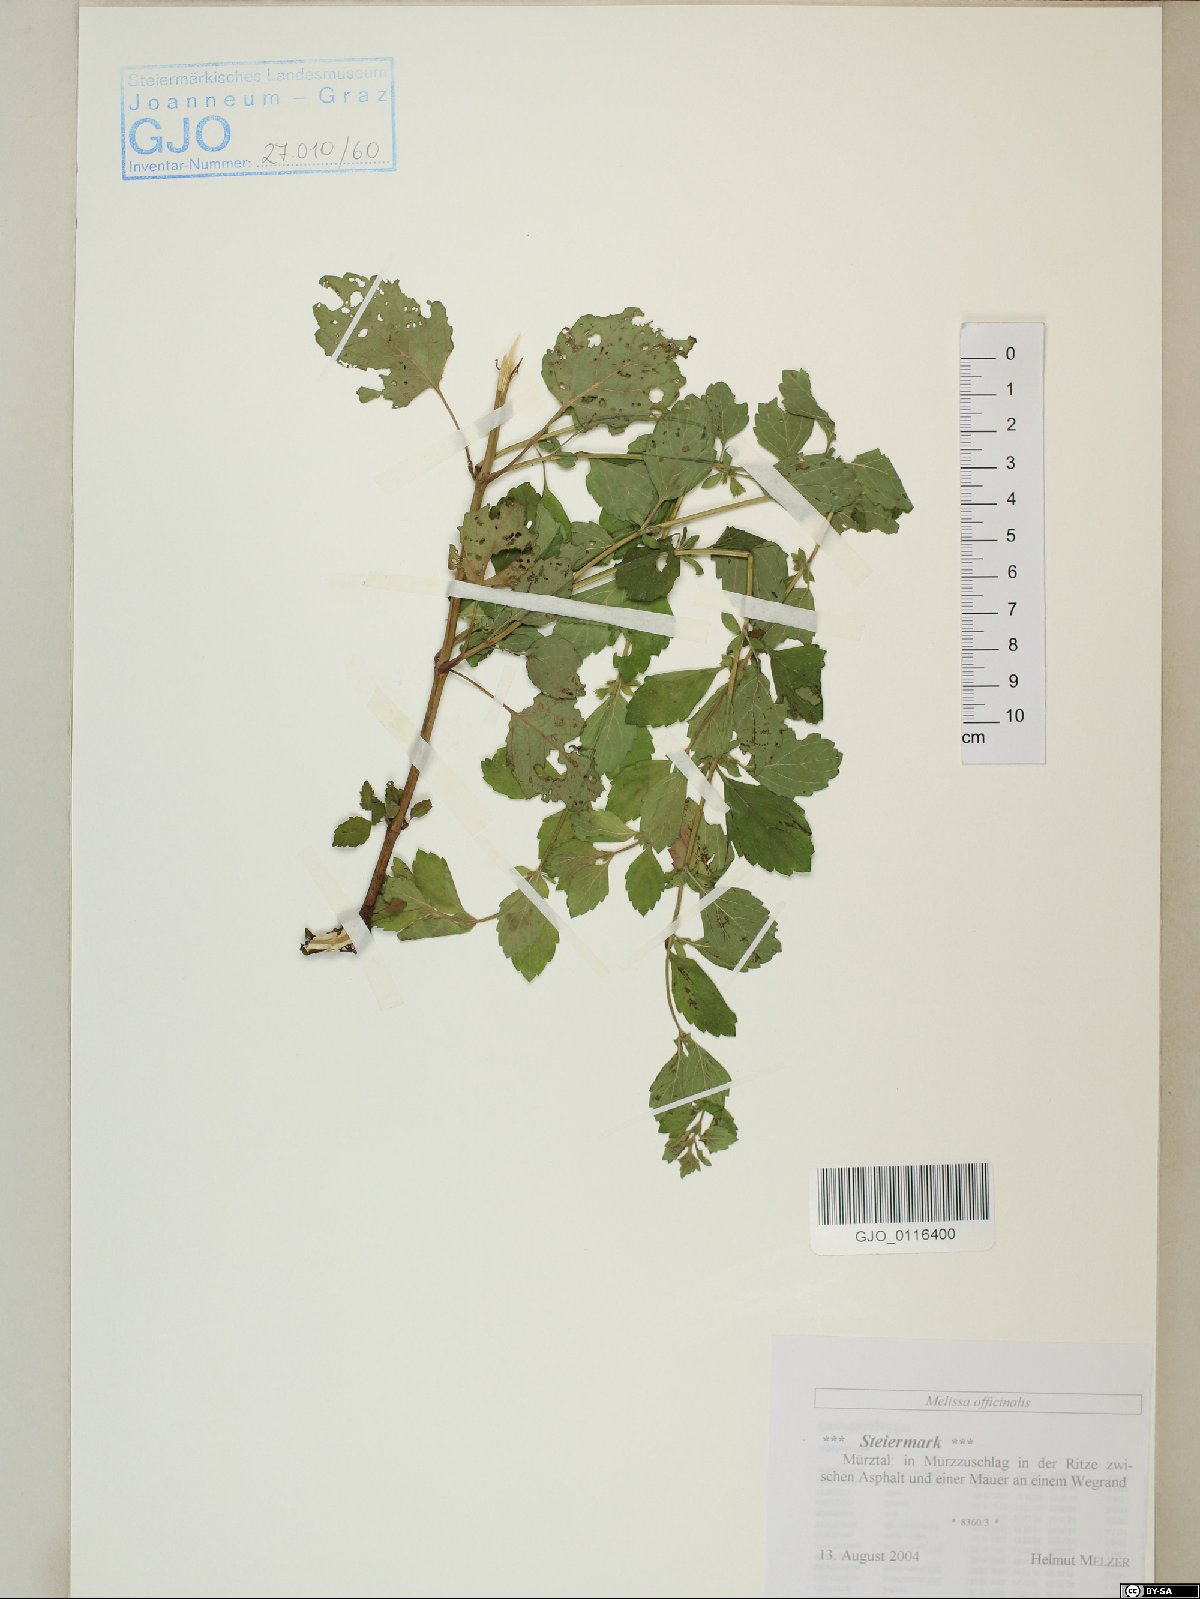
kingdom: Plantae
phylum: Tracheophyta
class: Magnoliopsida
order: Lamiales
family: Lamiaceae
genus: Melissa
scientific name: Melissa officinalis
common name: Balm
